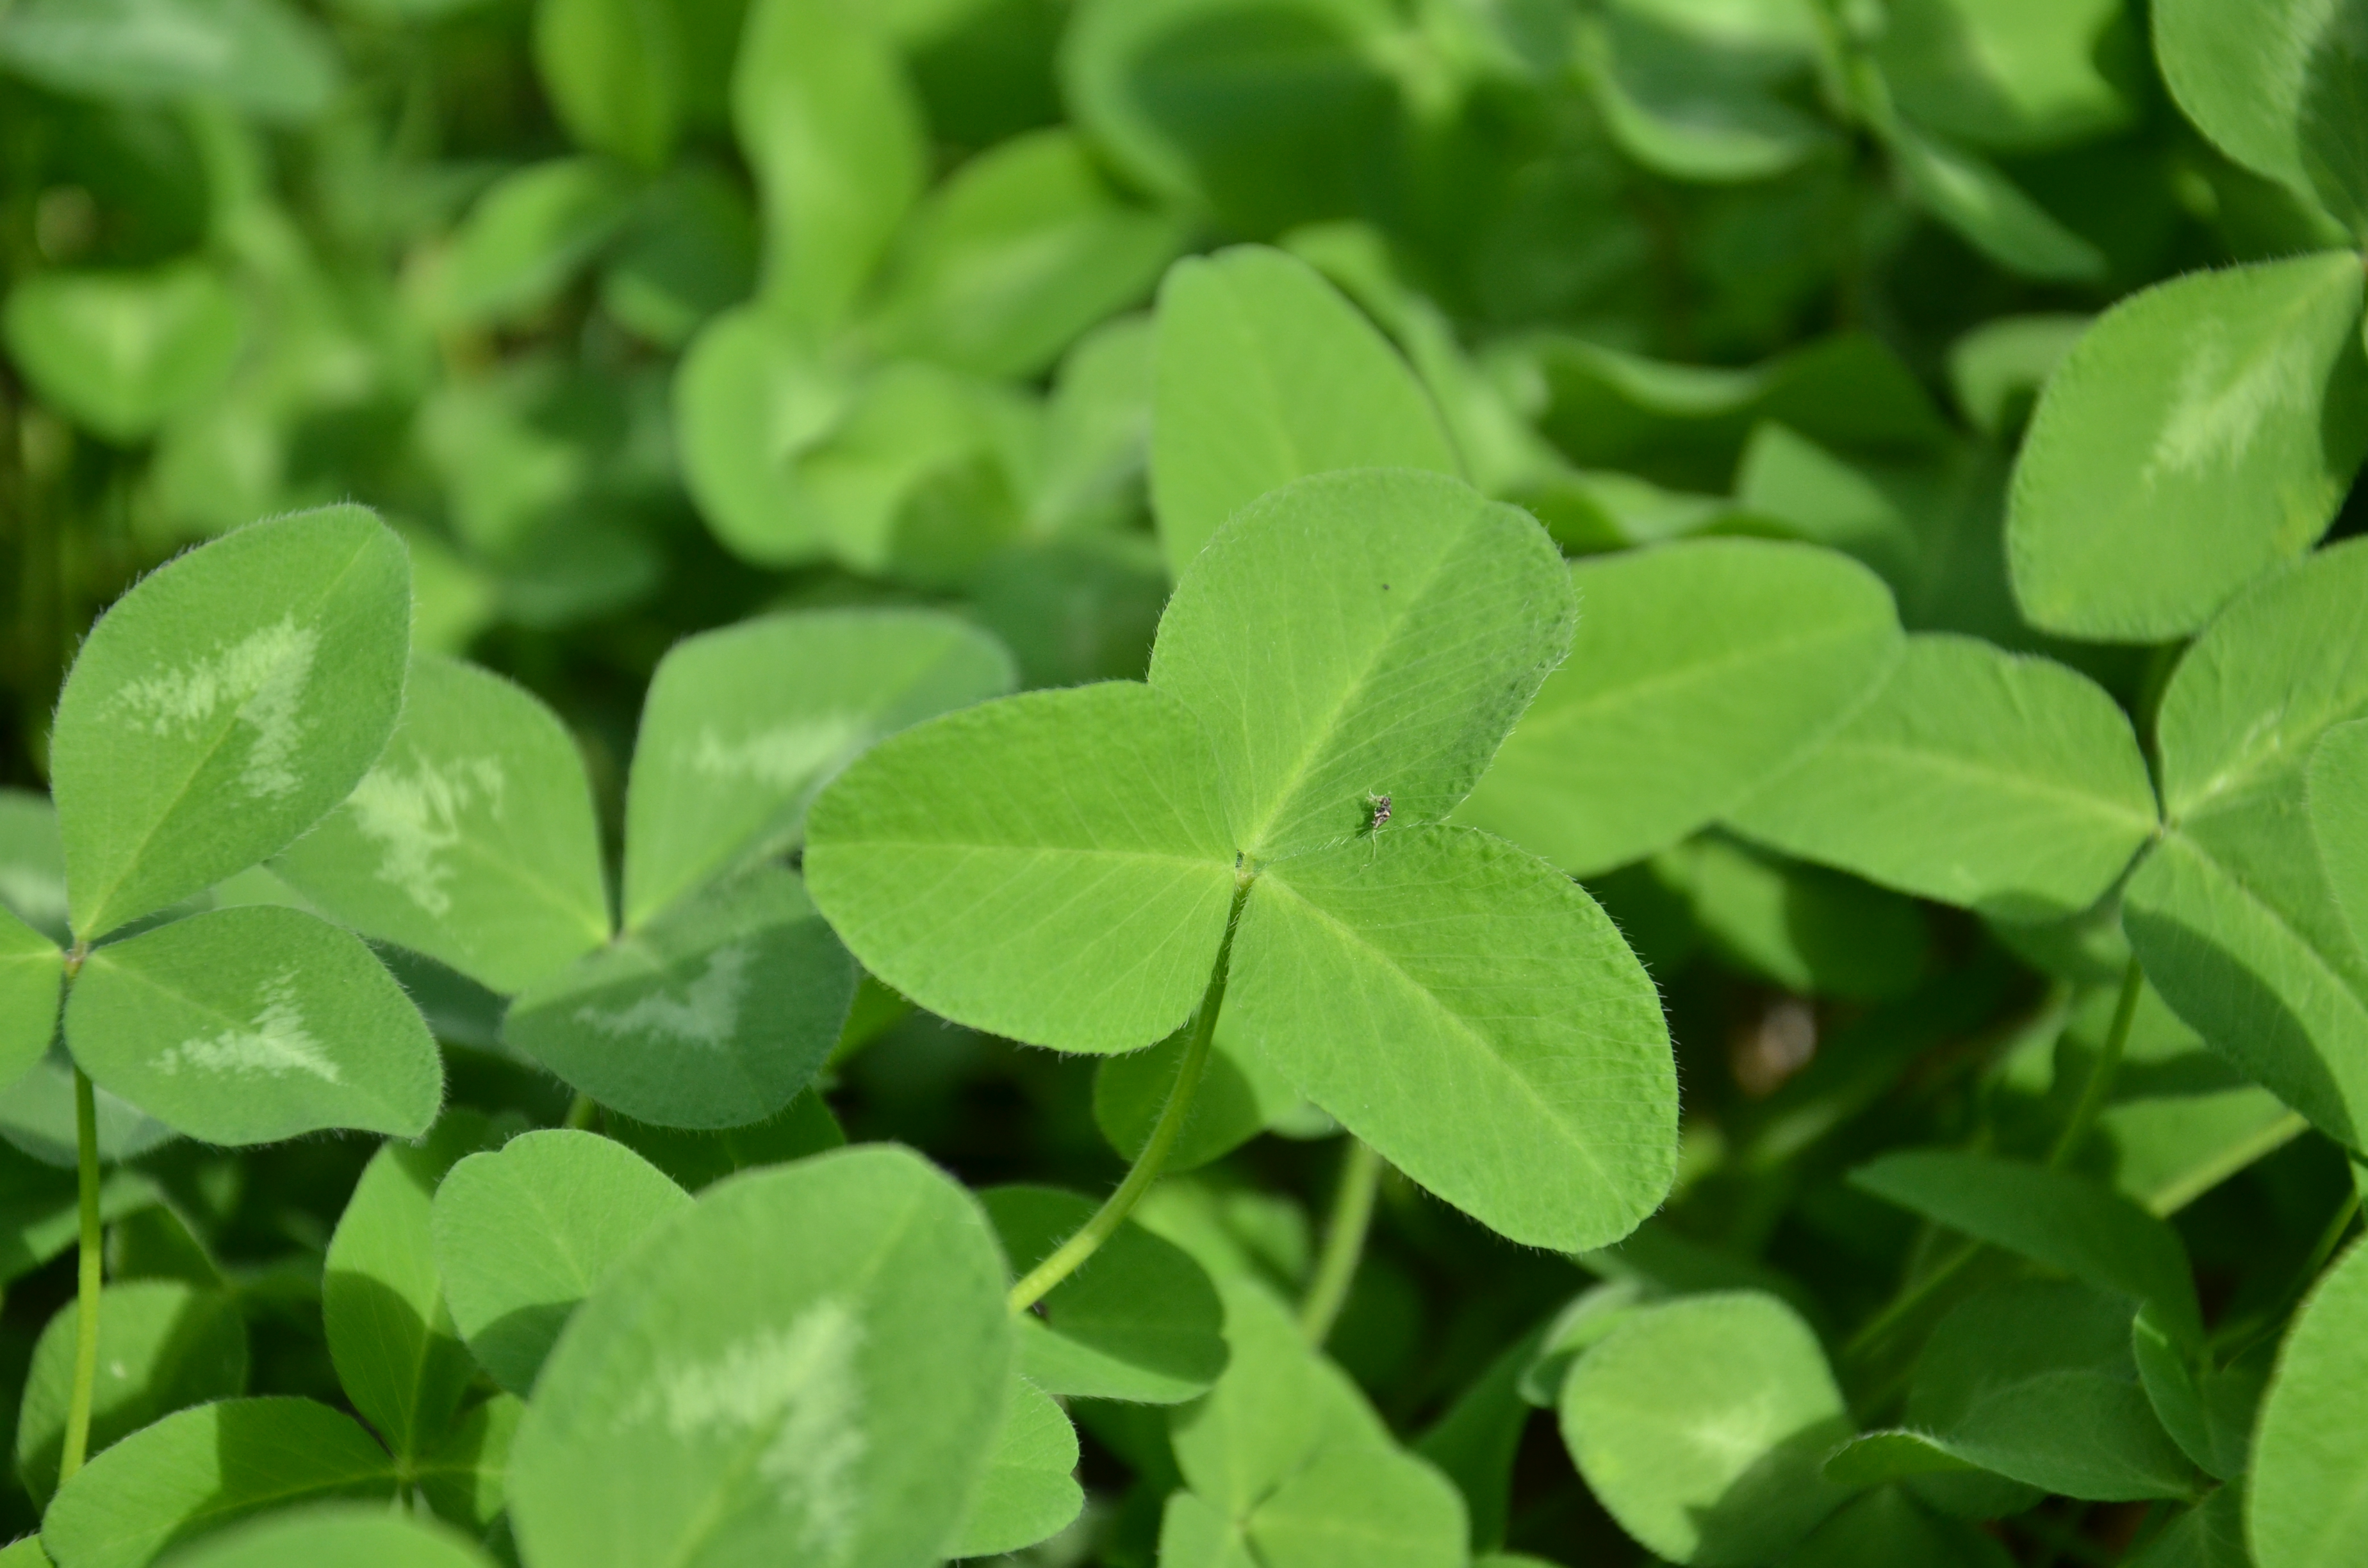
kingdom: Plantae
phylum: Tracheophyta
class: Magnoliopsida
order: Fabales
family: Fabaceae
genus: Trifolium
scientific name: Trifolium pratense
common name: Red clover
